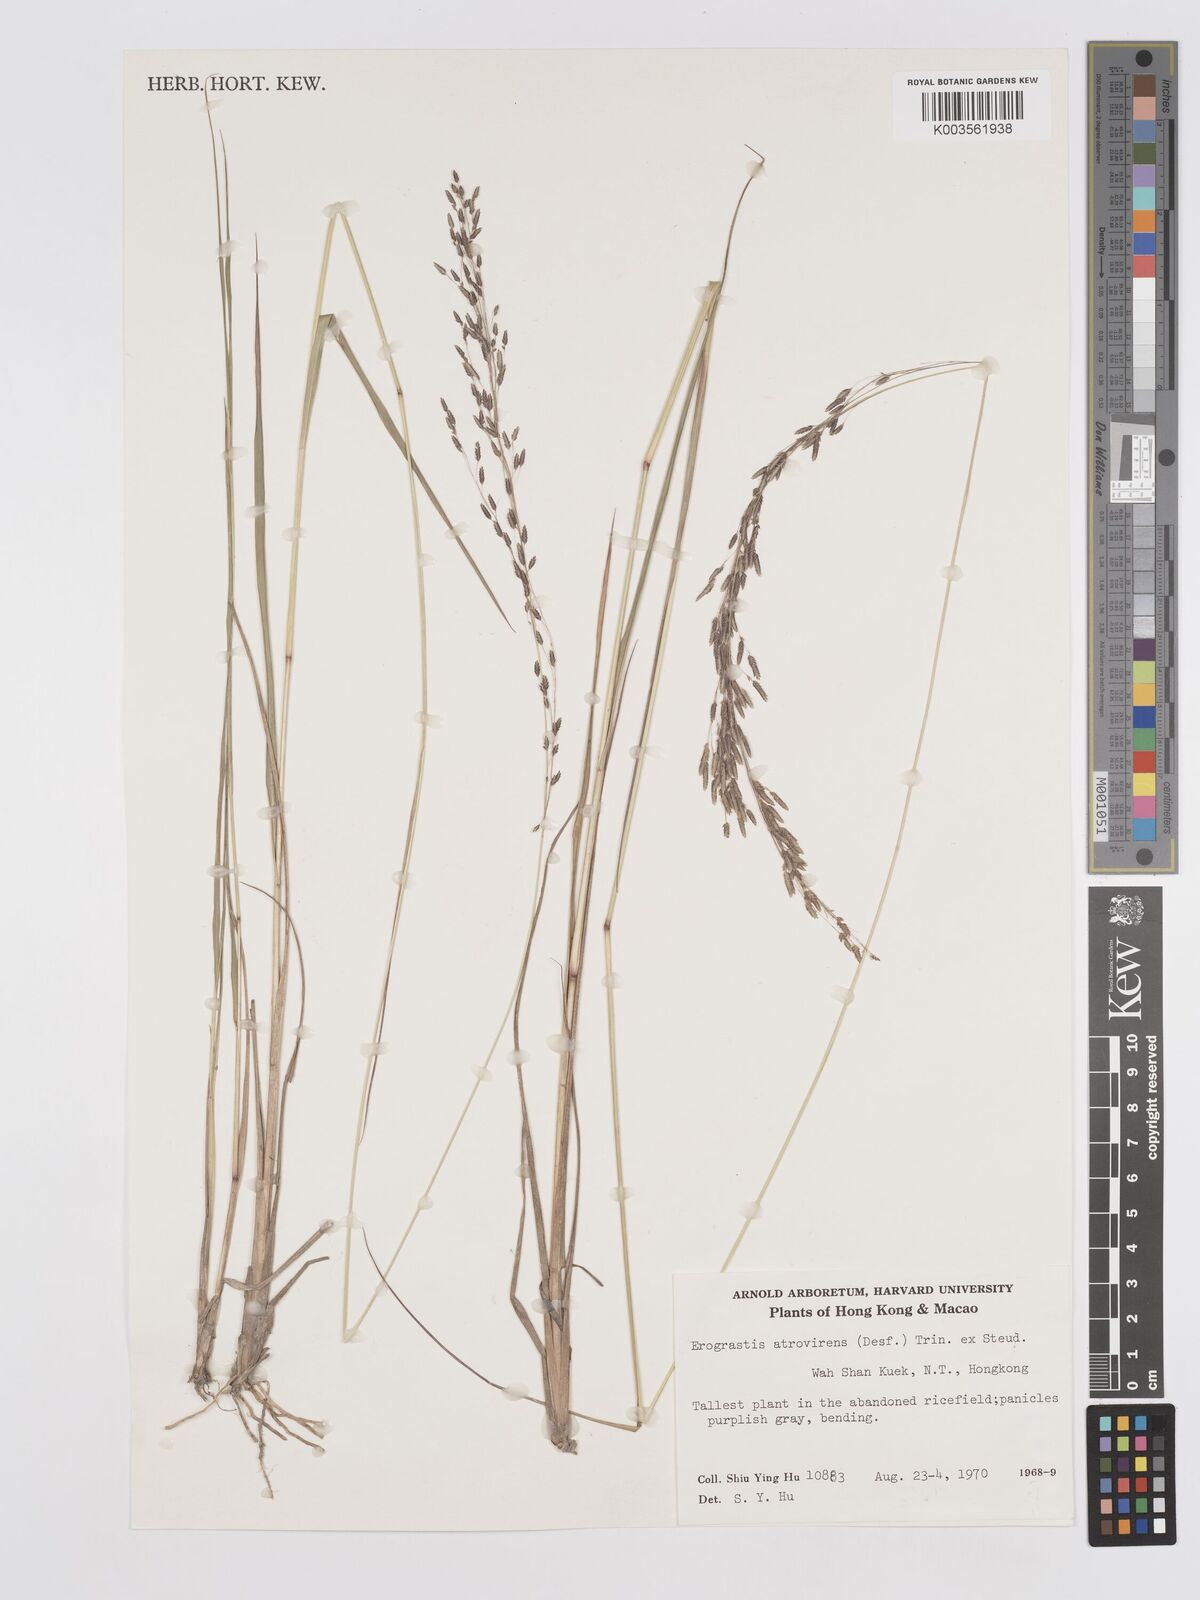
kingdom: Plantae
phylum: Tracheophyta
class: Liliopsida
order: Poales
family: Poaceae
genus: Eragrostis
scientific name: Eragrostis atrovirens
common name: Thalia lovegrass
